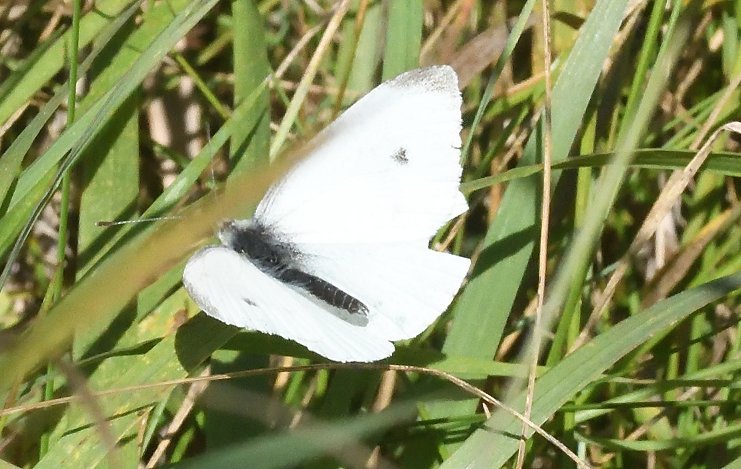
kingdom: Animalia
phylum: Arthropoda
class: Insecta
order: Lepidoptera
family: Pieridae
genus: Pieris
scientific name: Pieris rapae
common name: Cabbage White
